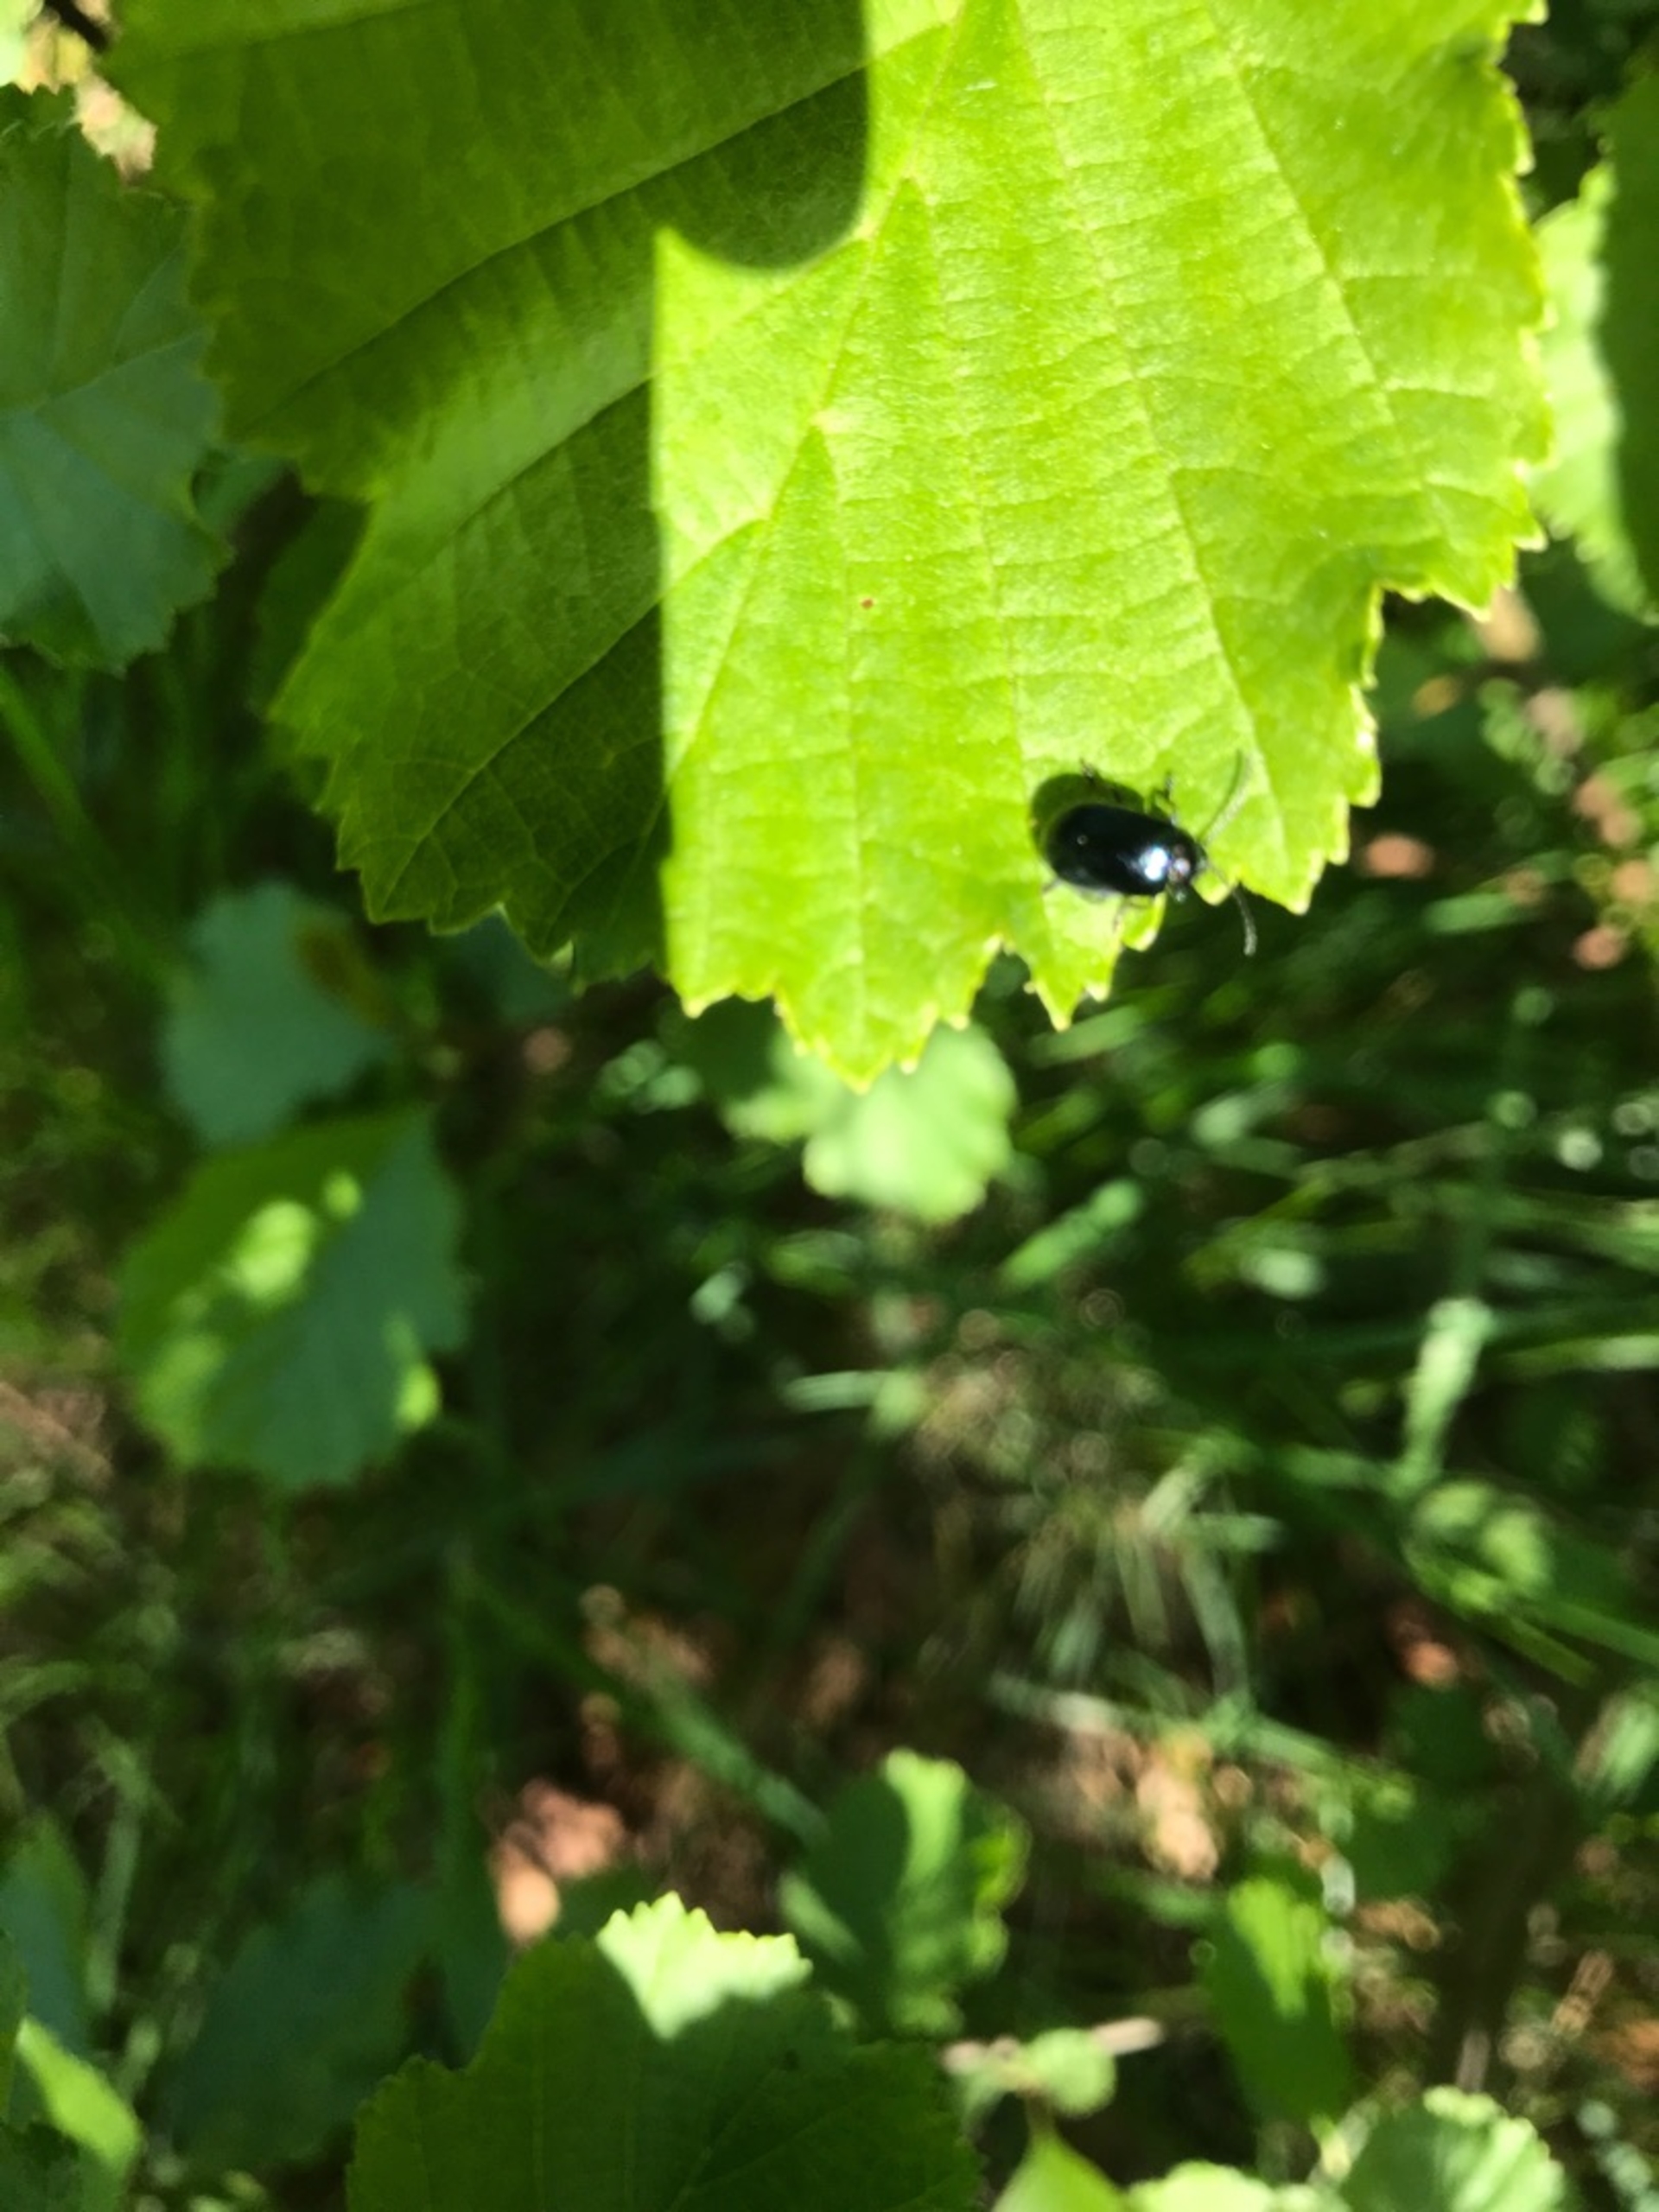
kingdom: Animalia
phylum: Arthropoda
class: Insecta
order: Coleoptera
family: Chrysomelidae
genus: Agelastica
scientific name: Agelastica alni
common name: Ellebladbille
